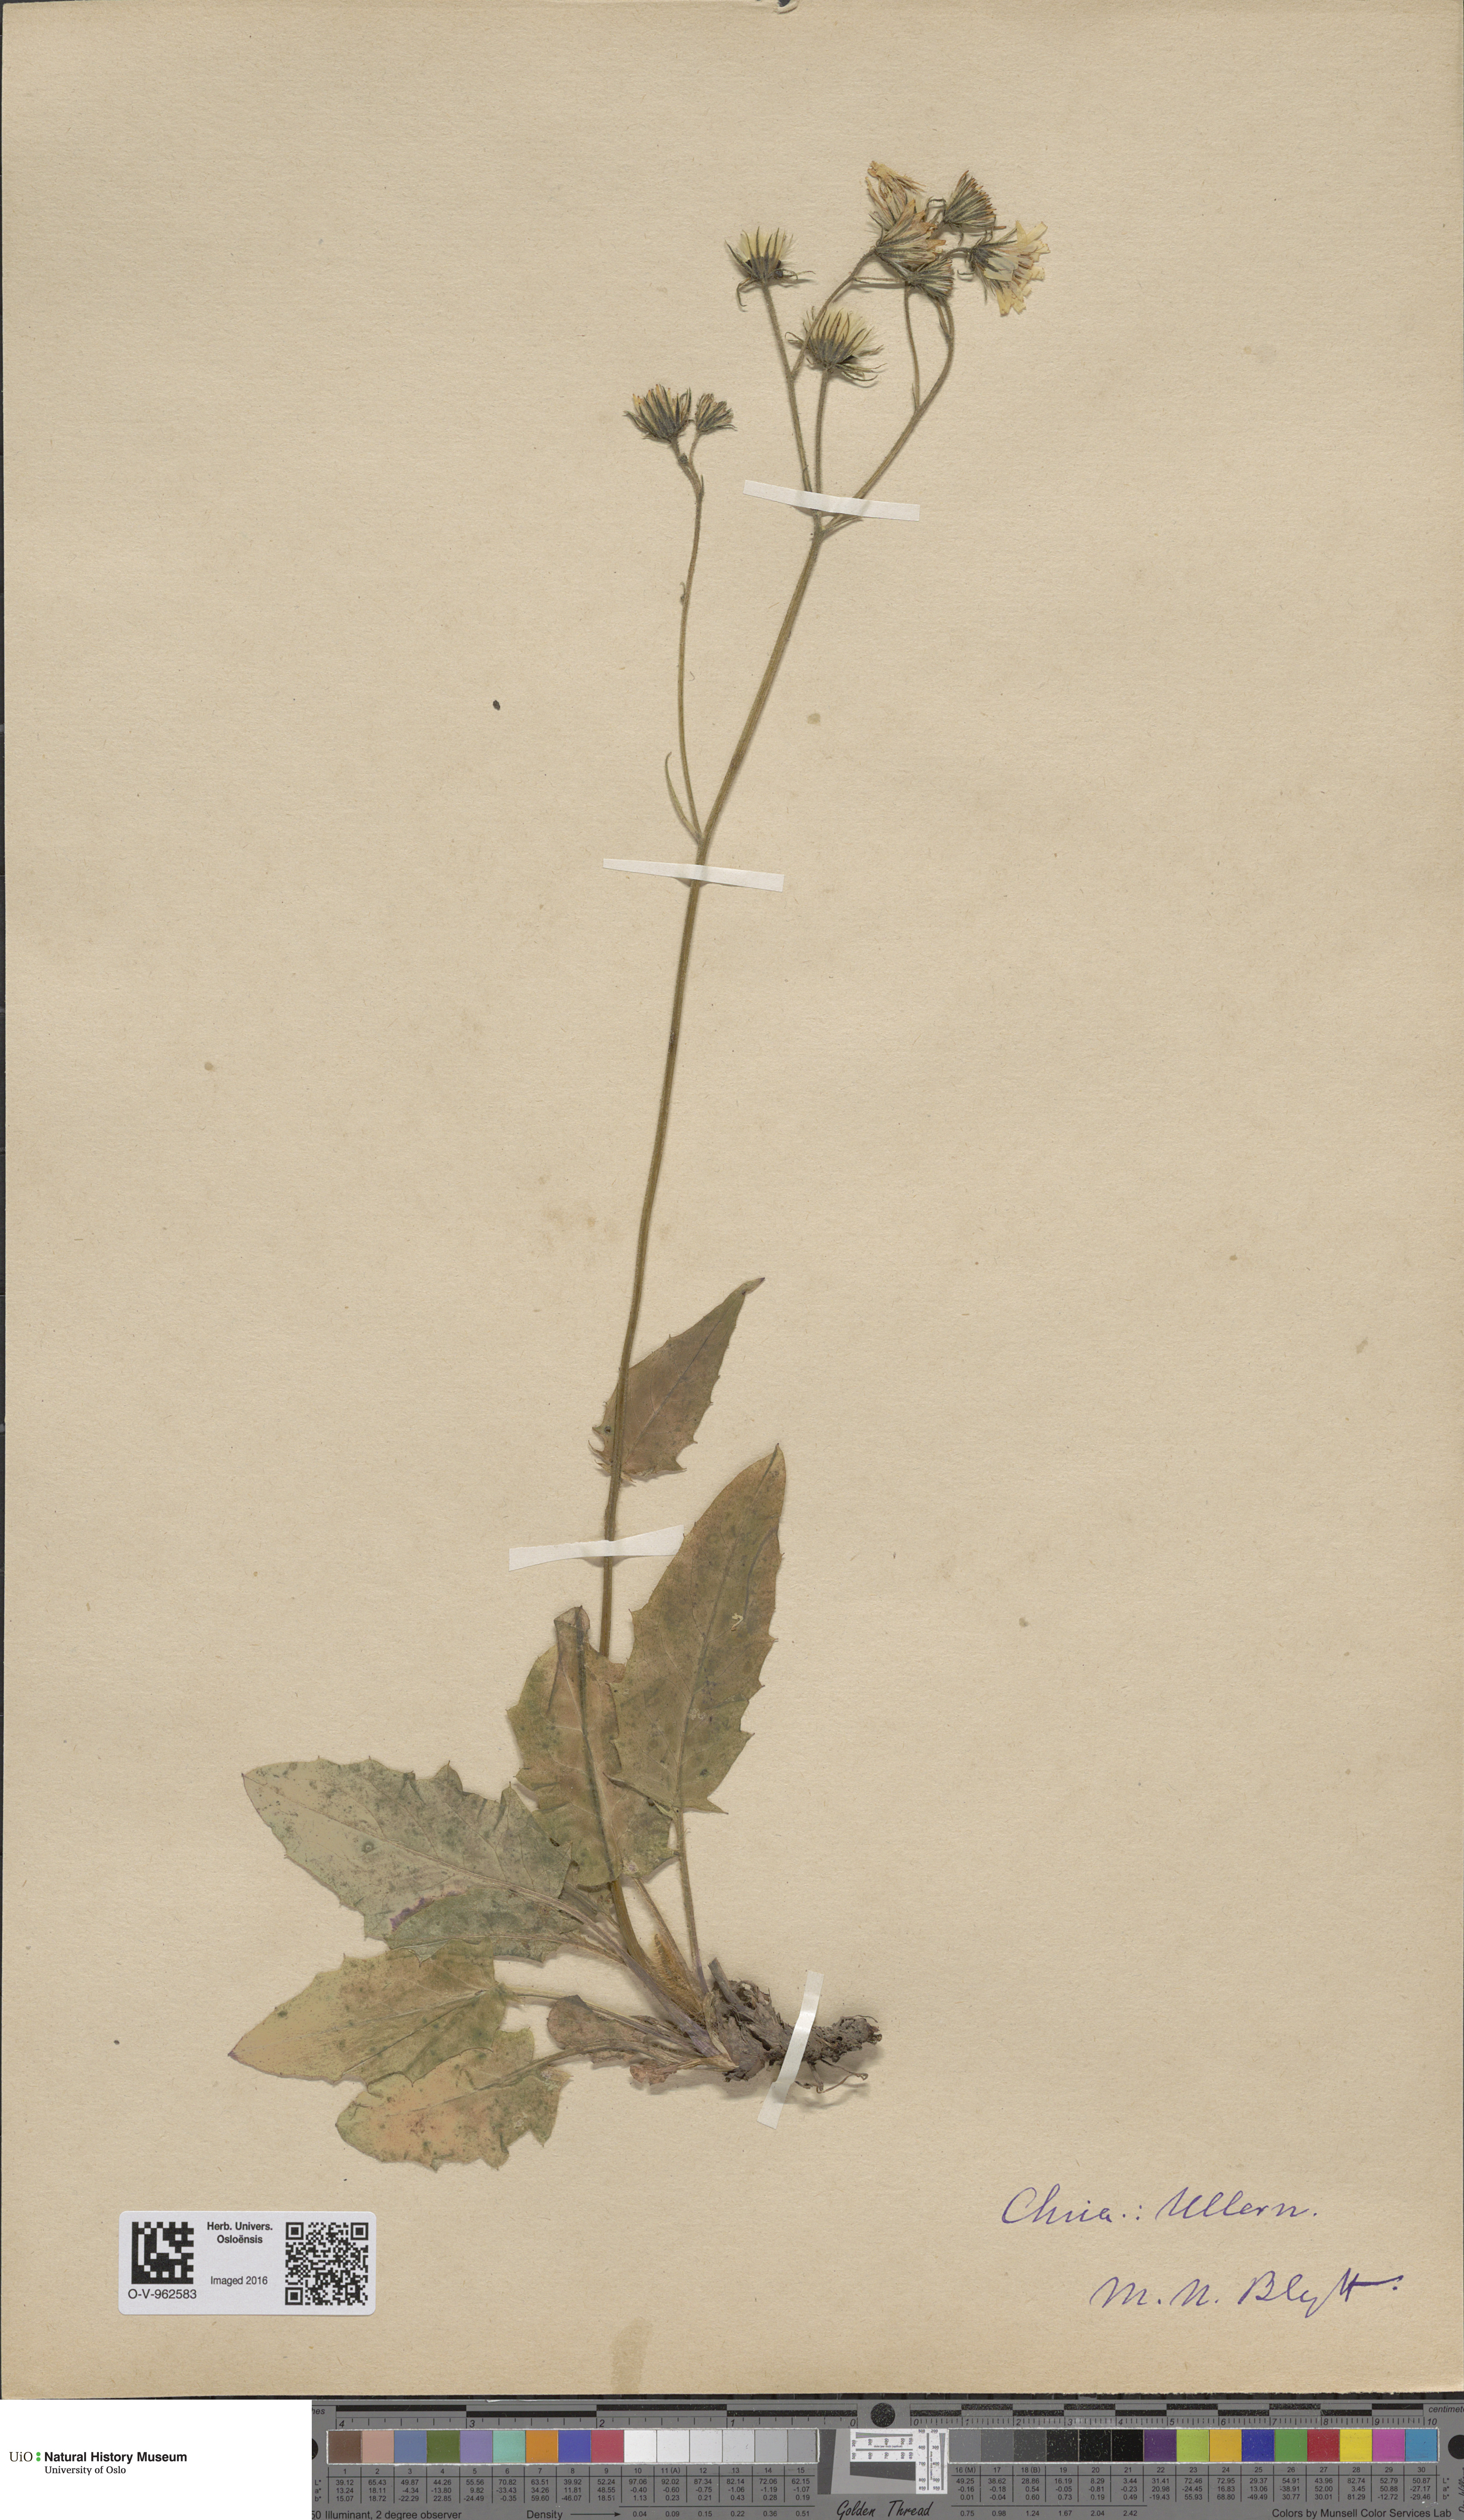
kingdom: Plantae
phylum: Tracheophyta
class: Magnoliopsida
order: Asterales
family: Asteraceae
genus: Hieracium
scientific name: Hieracium
